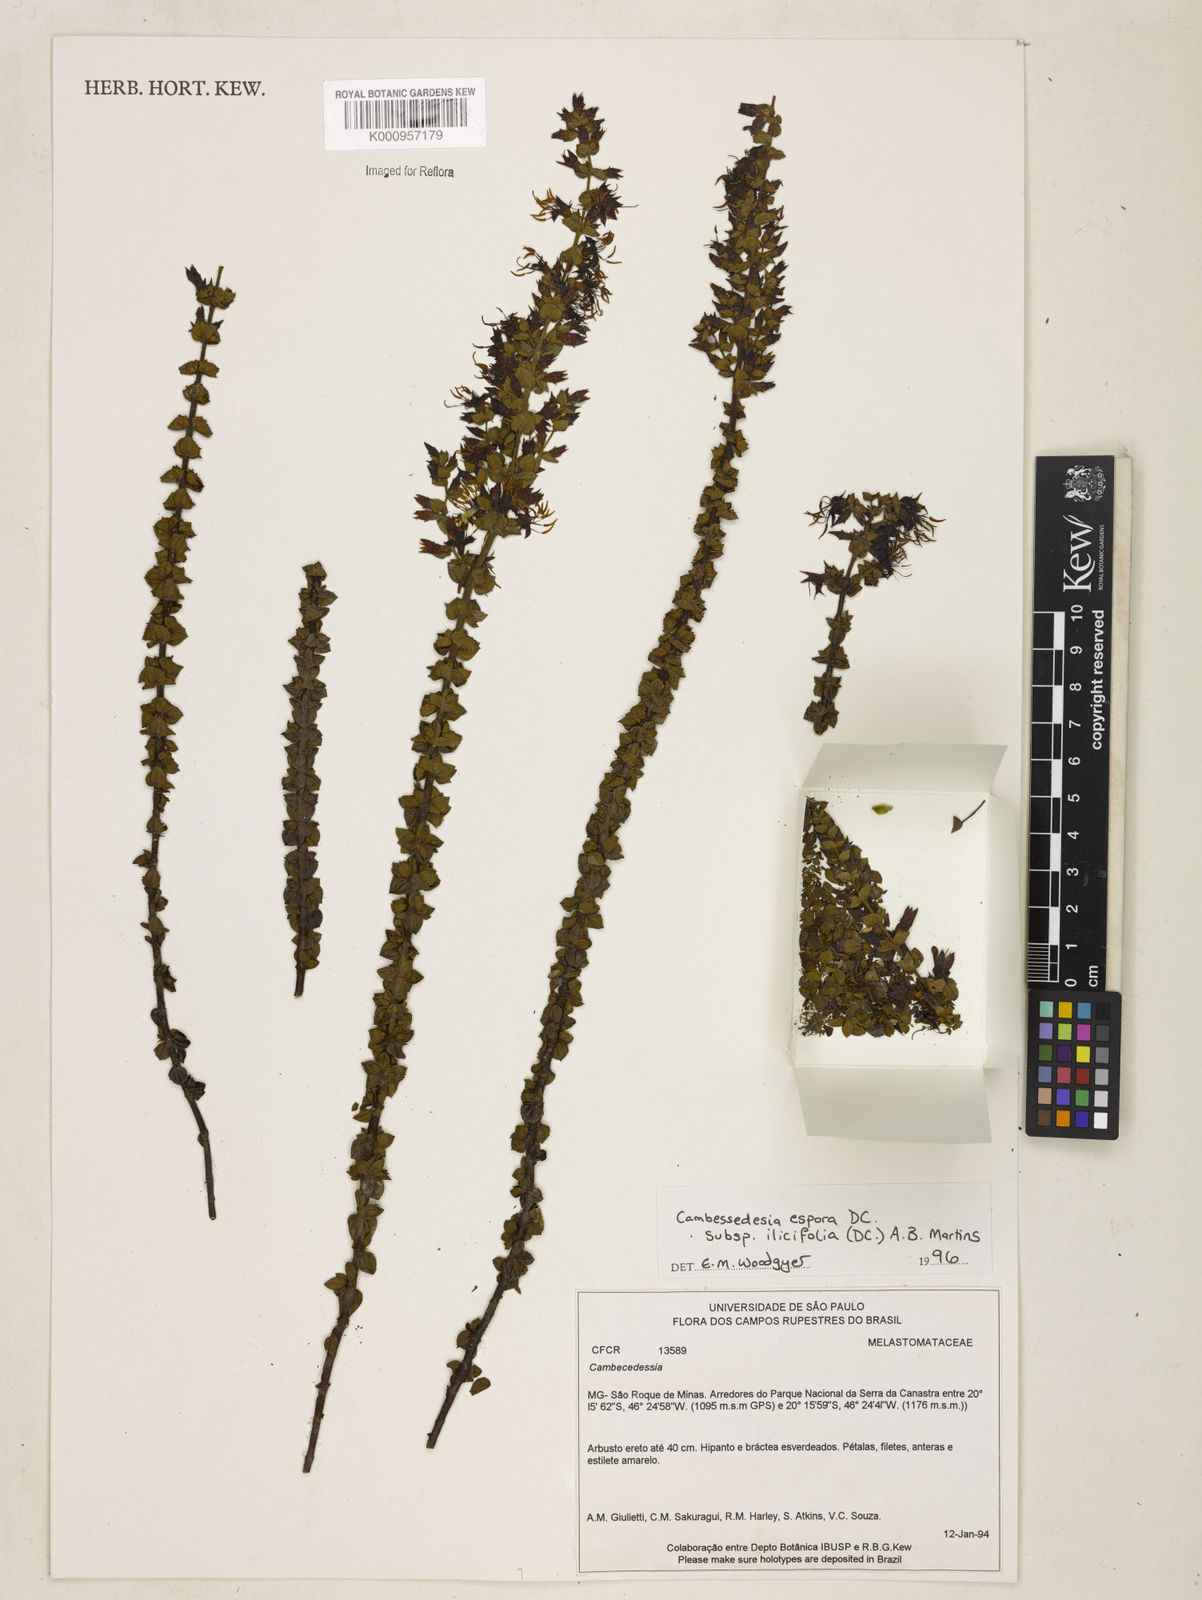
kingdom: Plantae
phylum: Tracheophyta
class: Magnoliopsida
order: Myrtales
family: Melastomataceae
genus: Cambessedesia
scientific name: Cambessedesia espora
